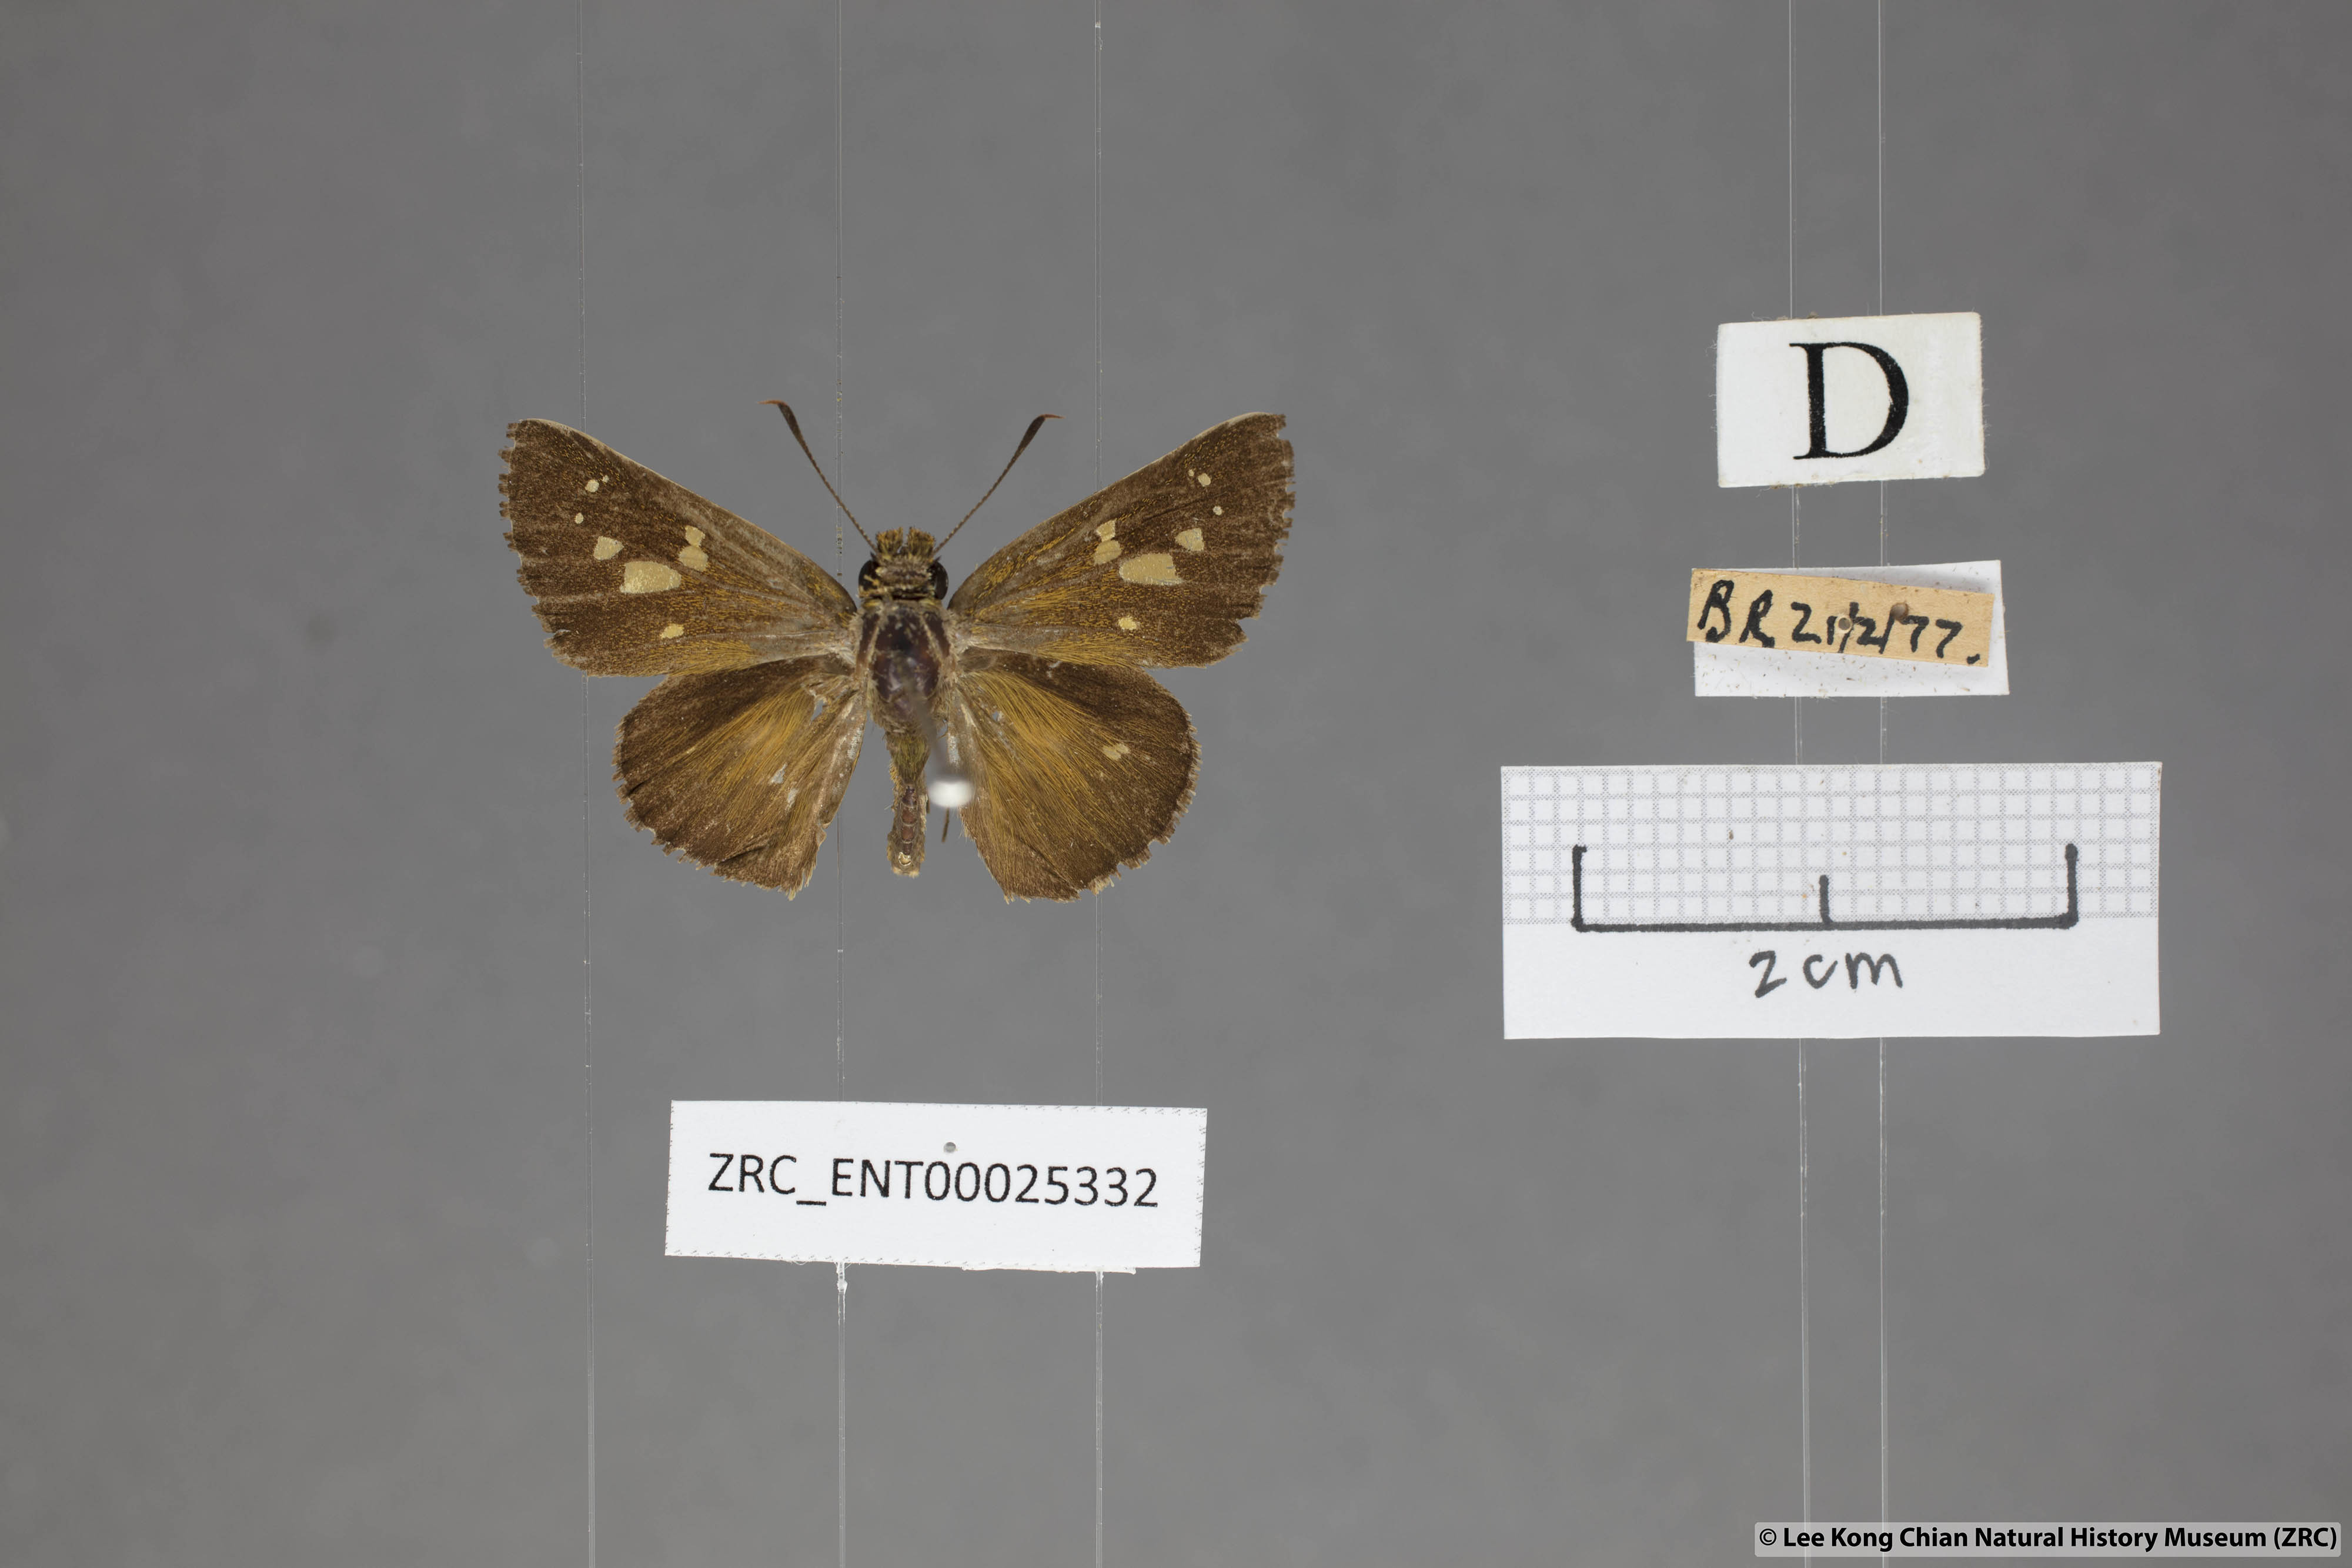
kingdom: Animalia
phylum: Arthropoda
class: Insecta
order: Lepidoptera
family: Hesperiidae
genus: Polytremis
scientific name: Polytremis lubricans
